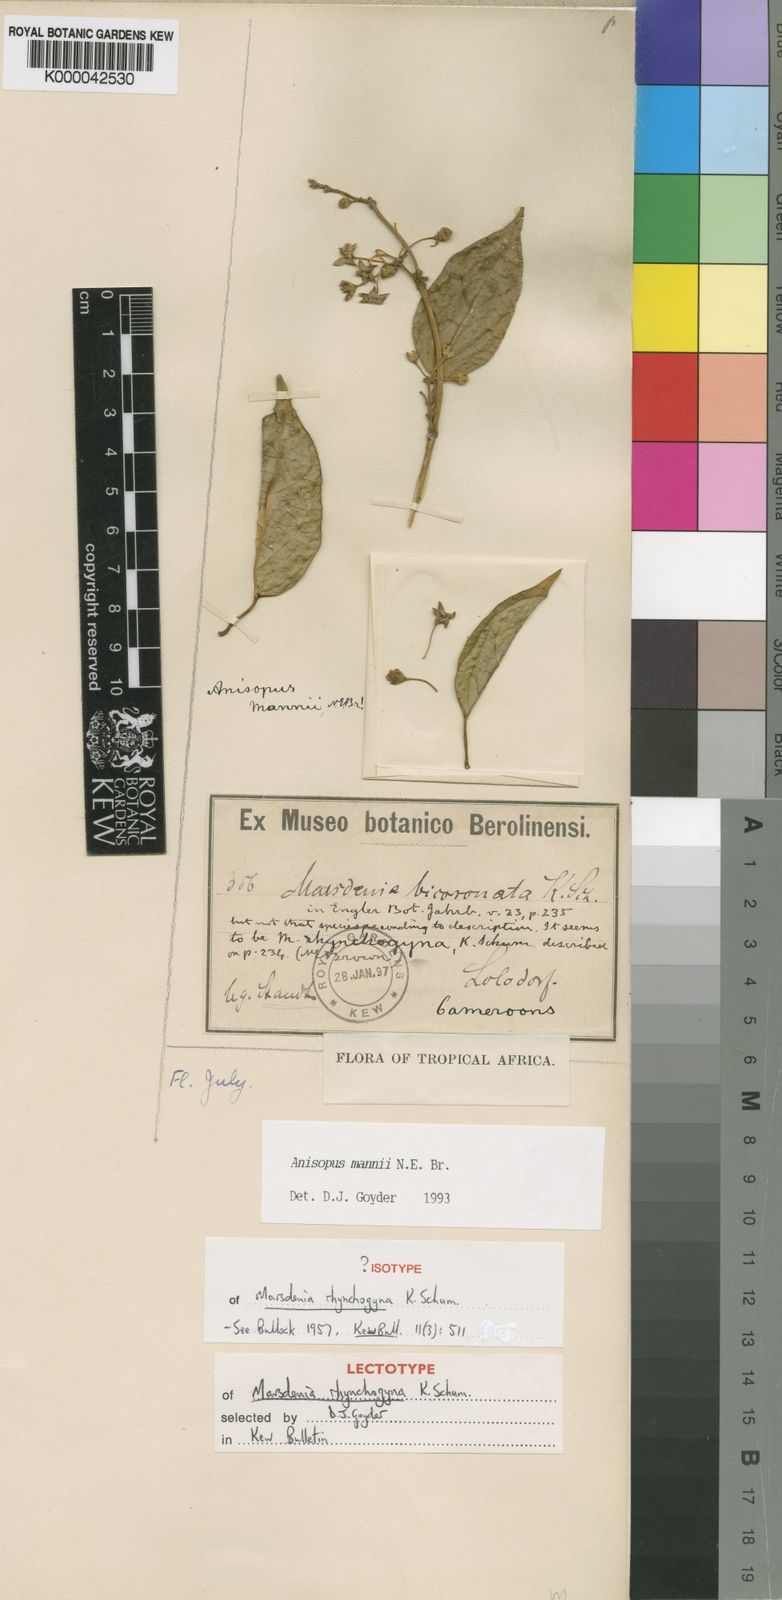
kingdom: Plantae
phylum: Tracheophyta
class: Magnoliopsida
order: Gentianales
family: Apocynaceae
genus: Anisopus
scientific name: Anisopus mannii
